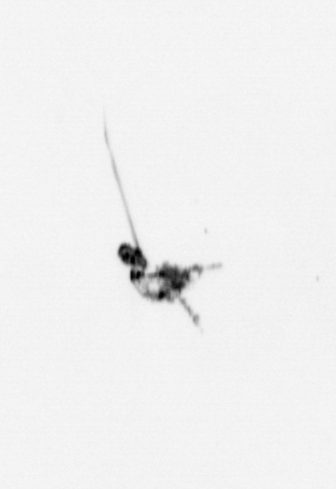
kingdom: Animalia
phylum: Arthropoda
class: Copepoda
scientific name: Copepoda
